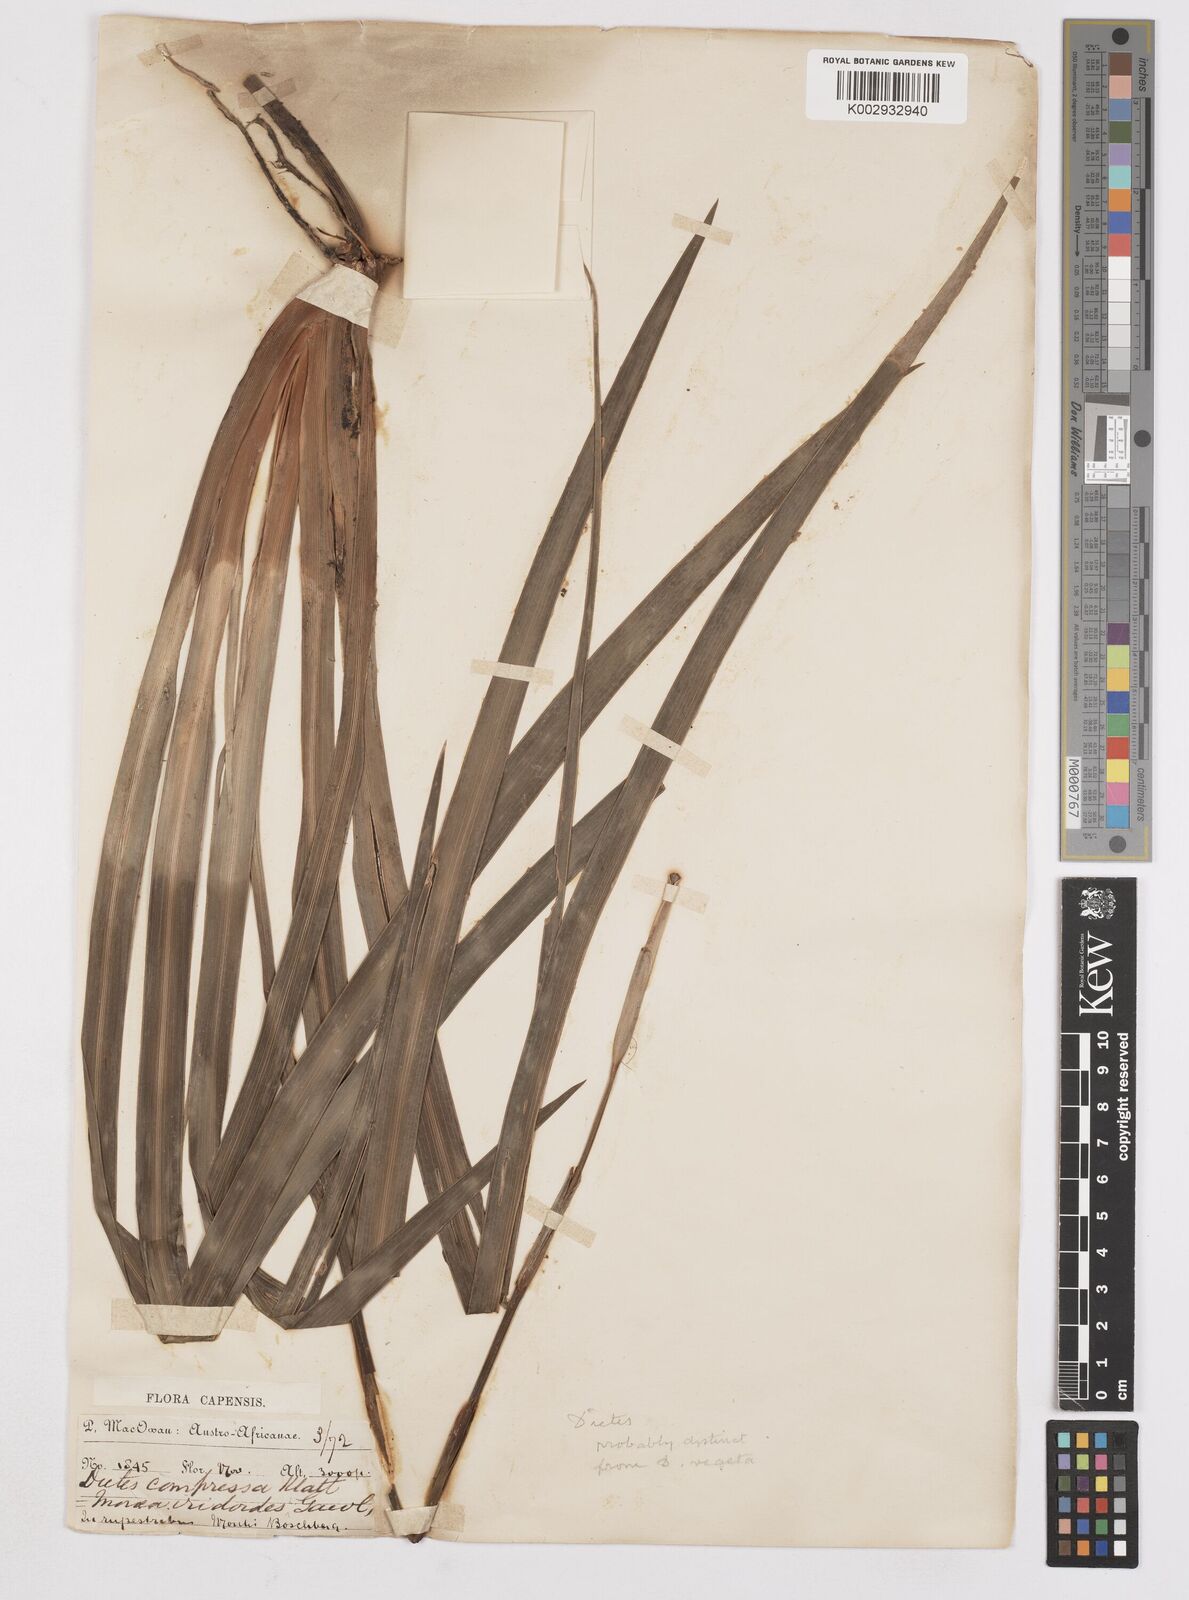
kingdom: Plantae
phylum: Tracheophyta
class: Liliopsida
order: Asparagales
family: Iridaceae
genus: Dietes
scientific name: Dietes iridioides
